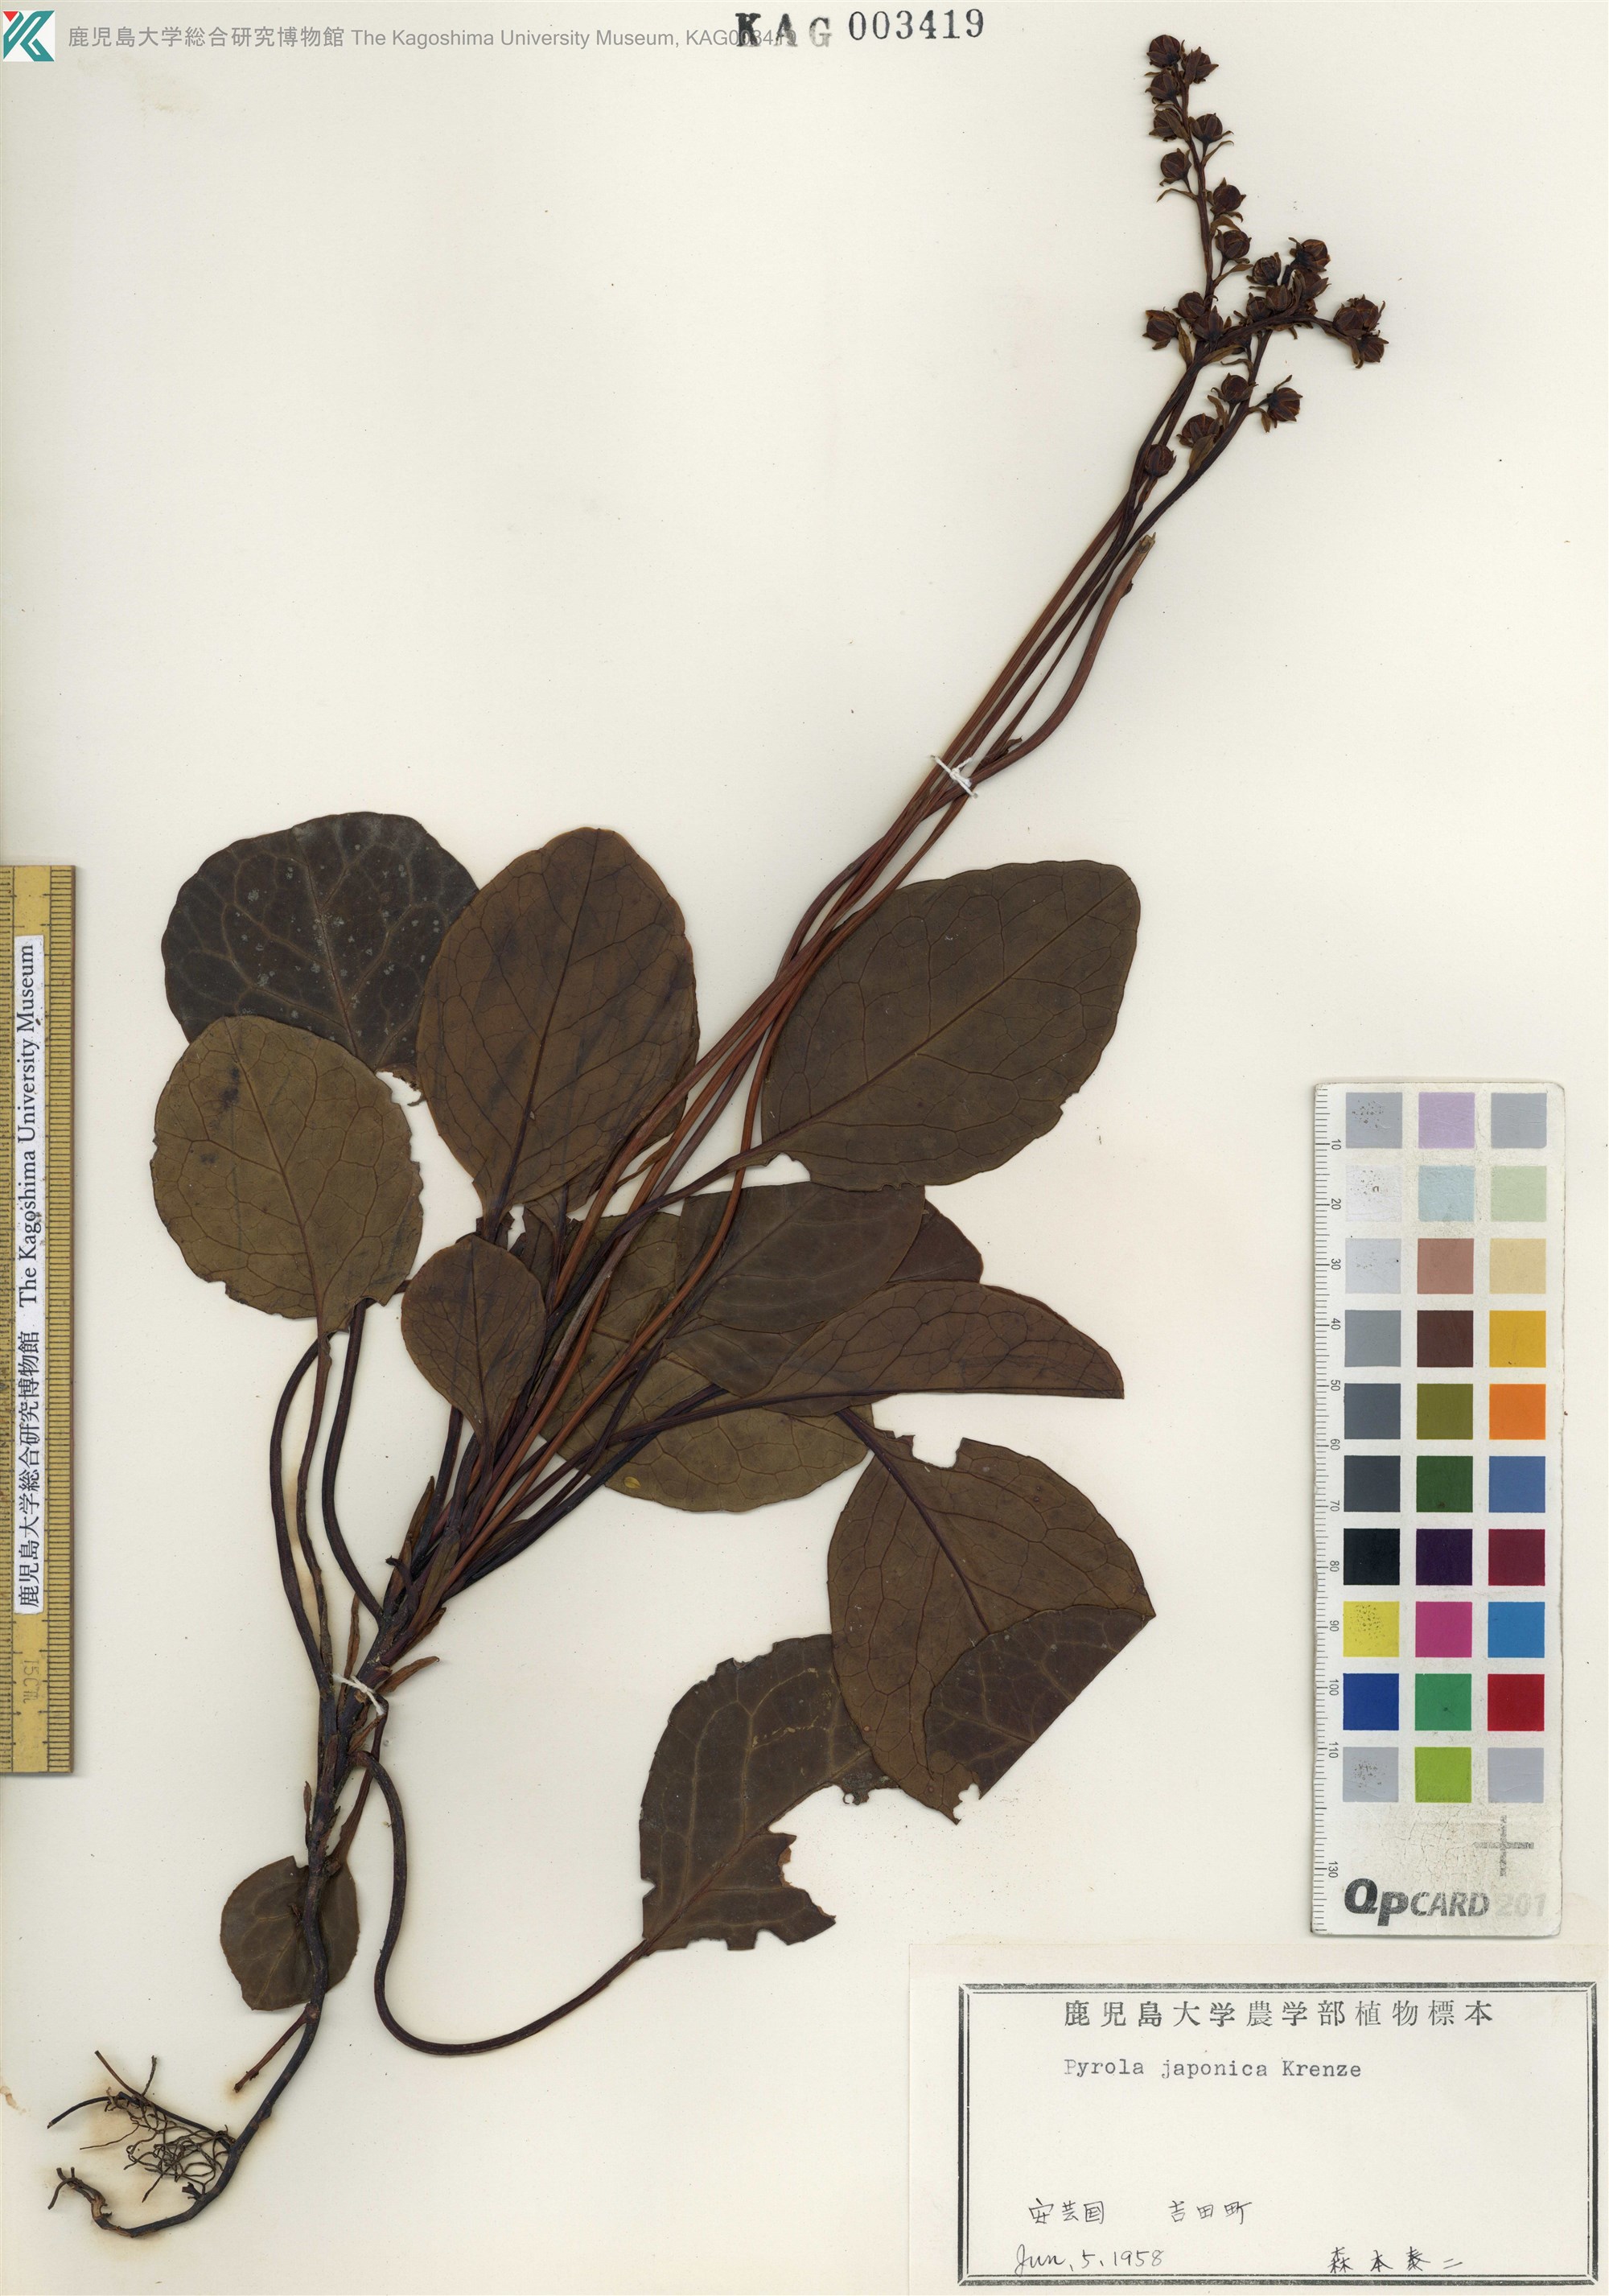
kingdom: Plantae
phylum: Tracheophyta
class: Magnoliopsida
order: Ericales
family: Ericaceae
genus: Pyrola
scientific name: Pyrola japonica
